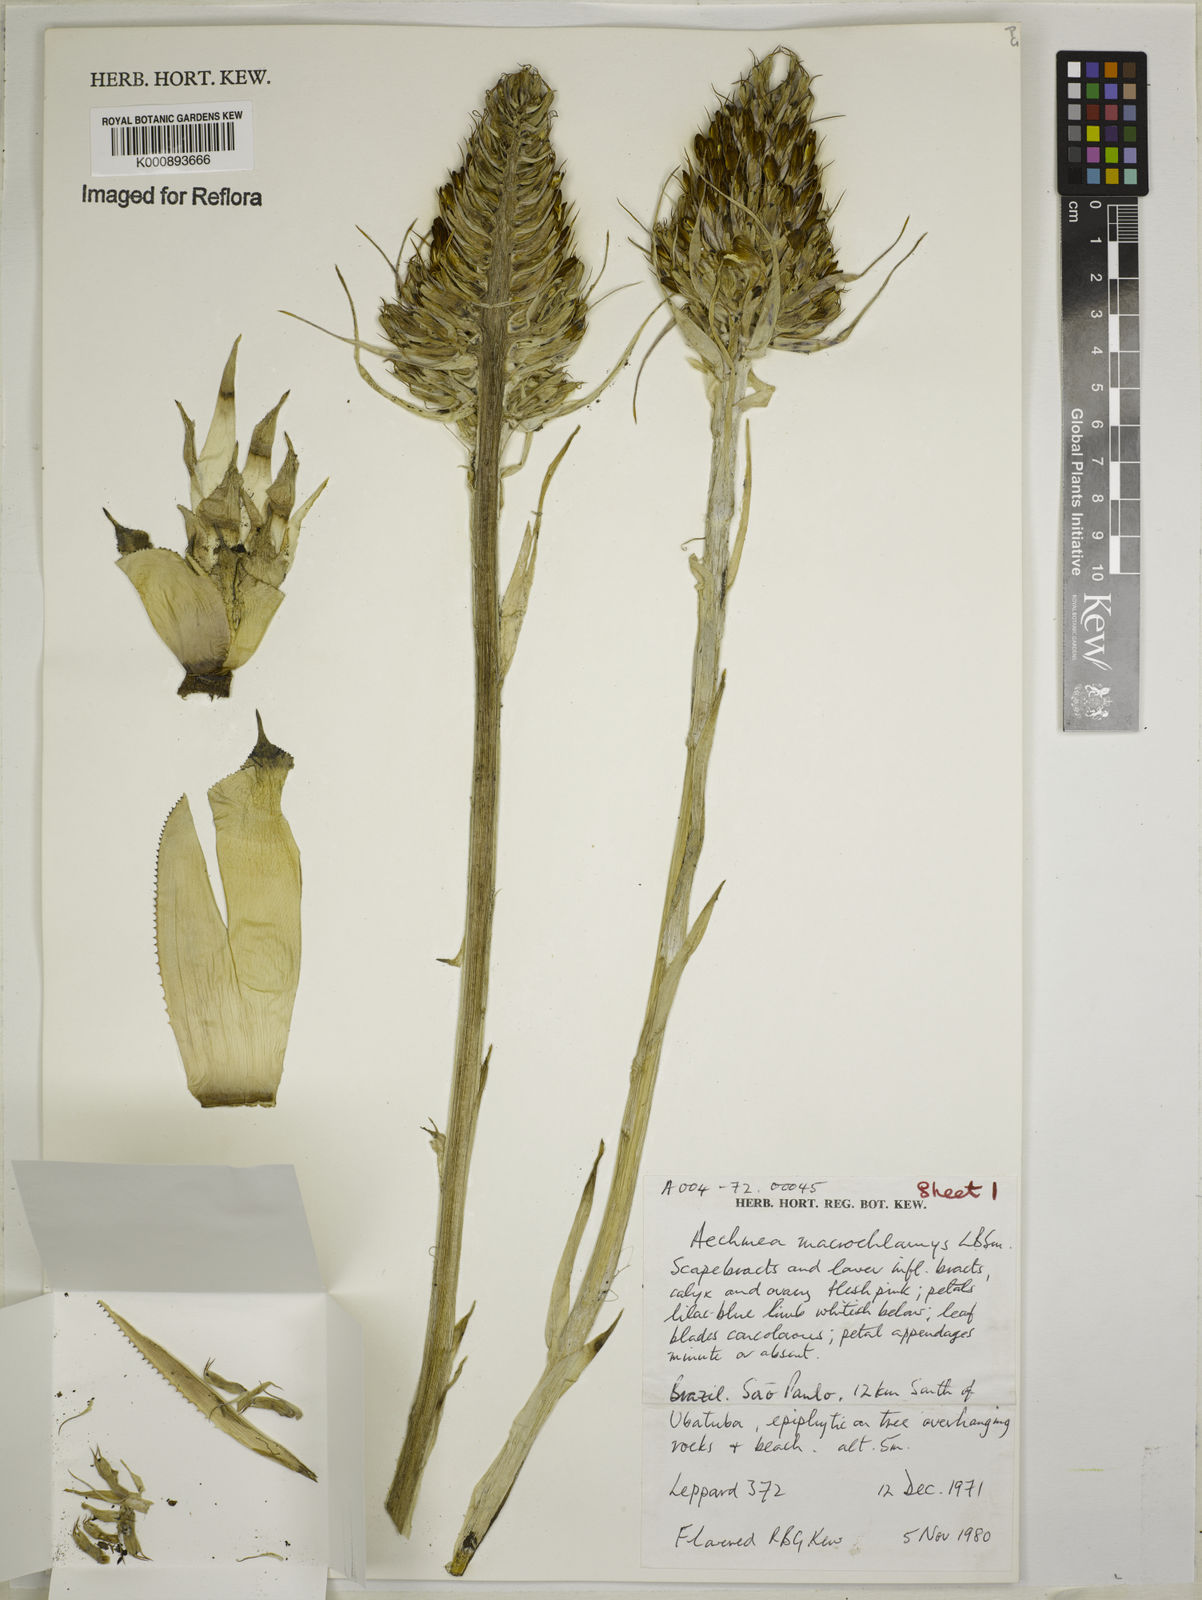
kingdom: Plantae
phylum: Tracheophyta
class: Liliopsida
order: Poales
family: Bromeliaceae
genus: Aechmea
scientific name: Aechmea macrochlamys
